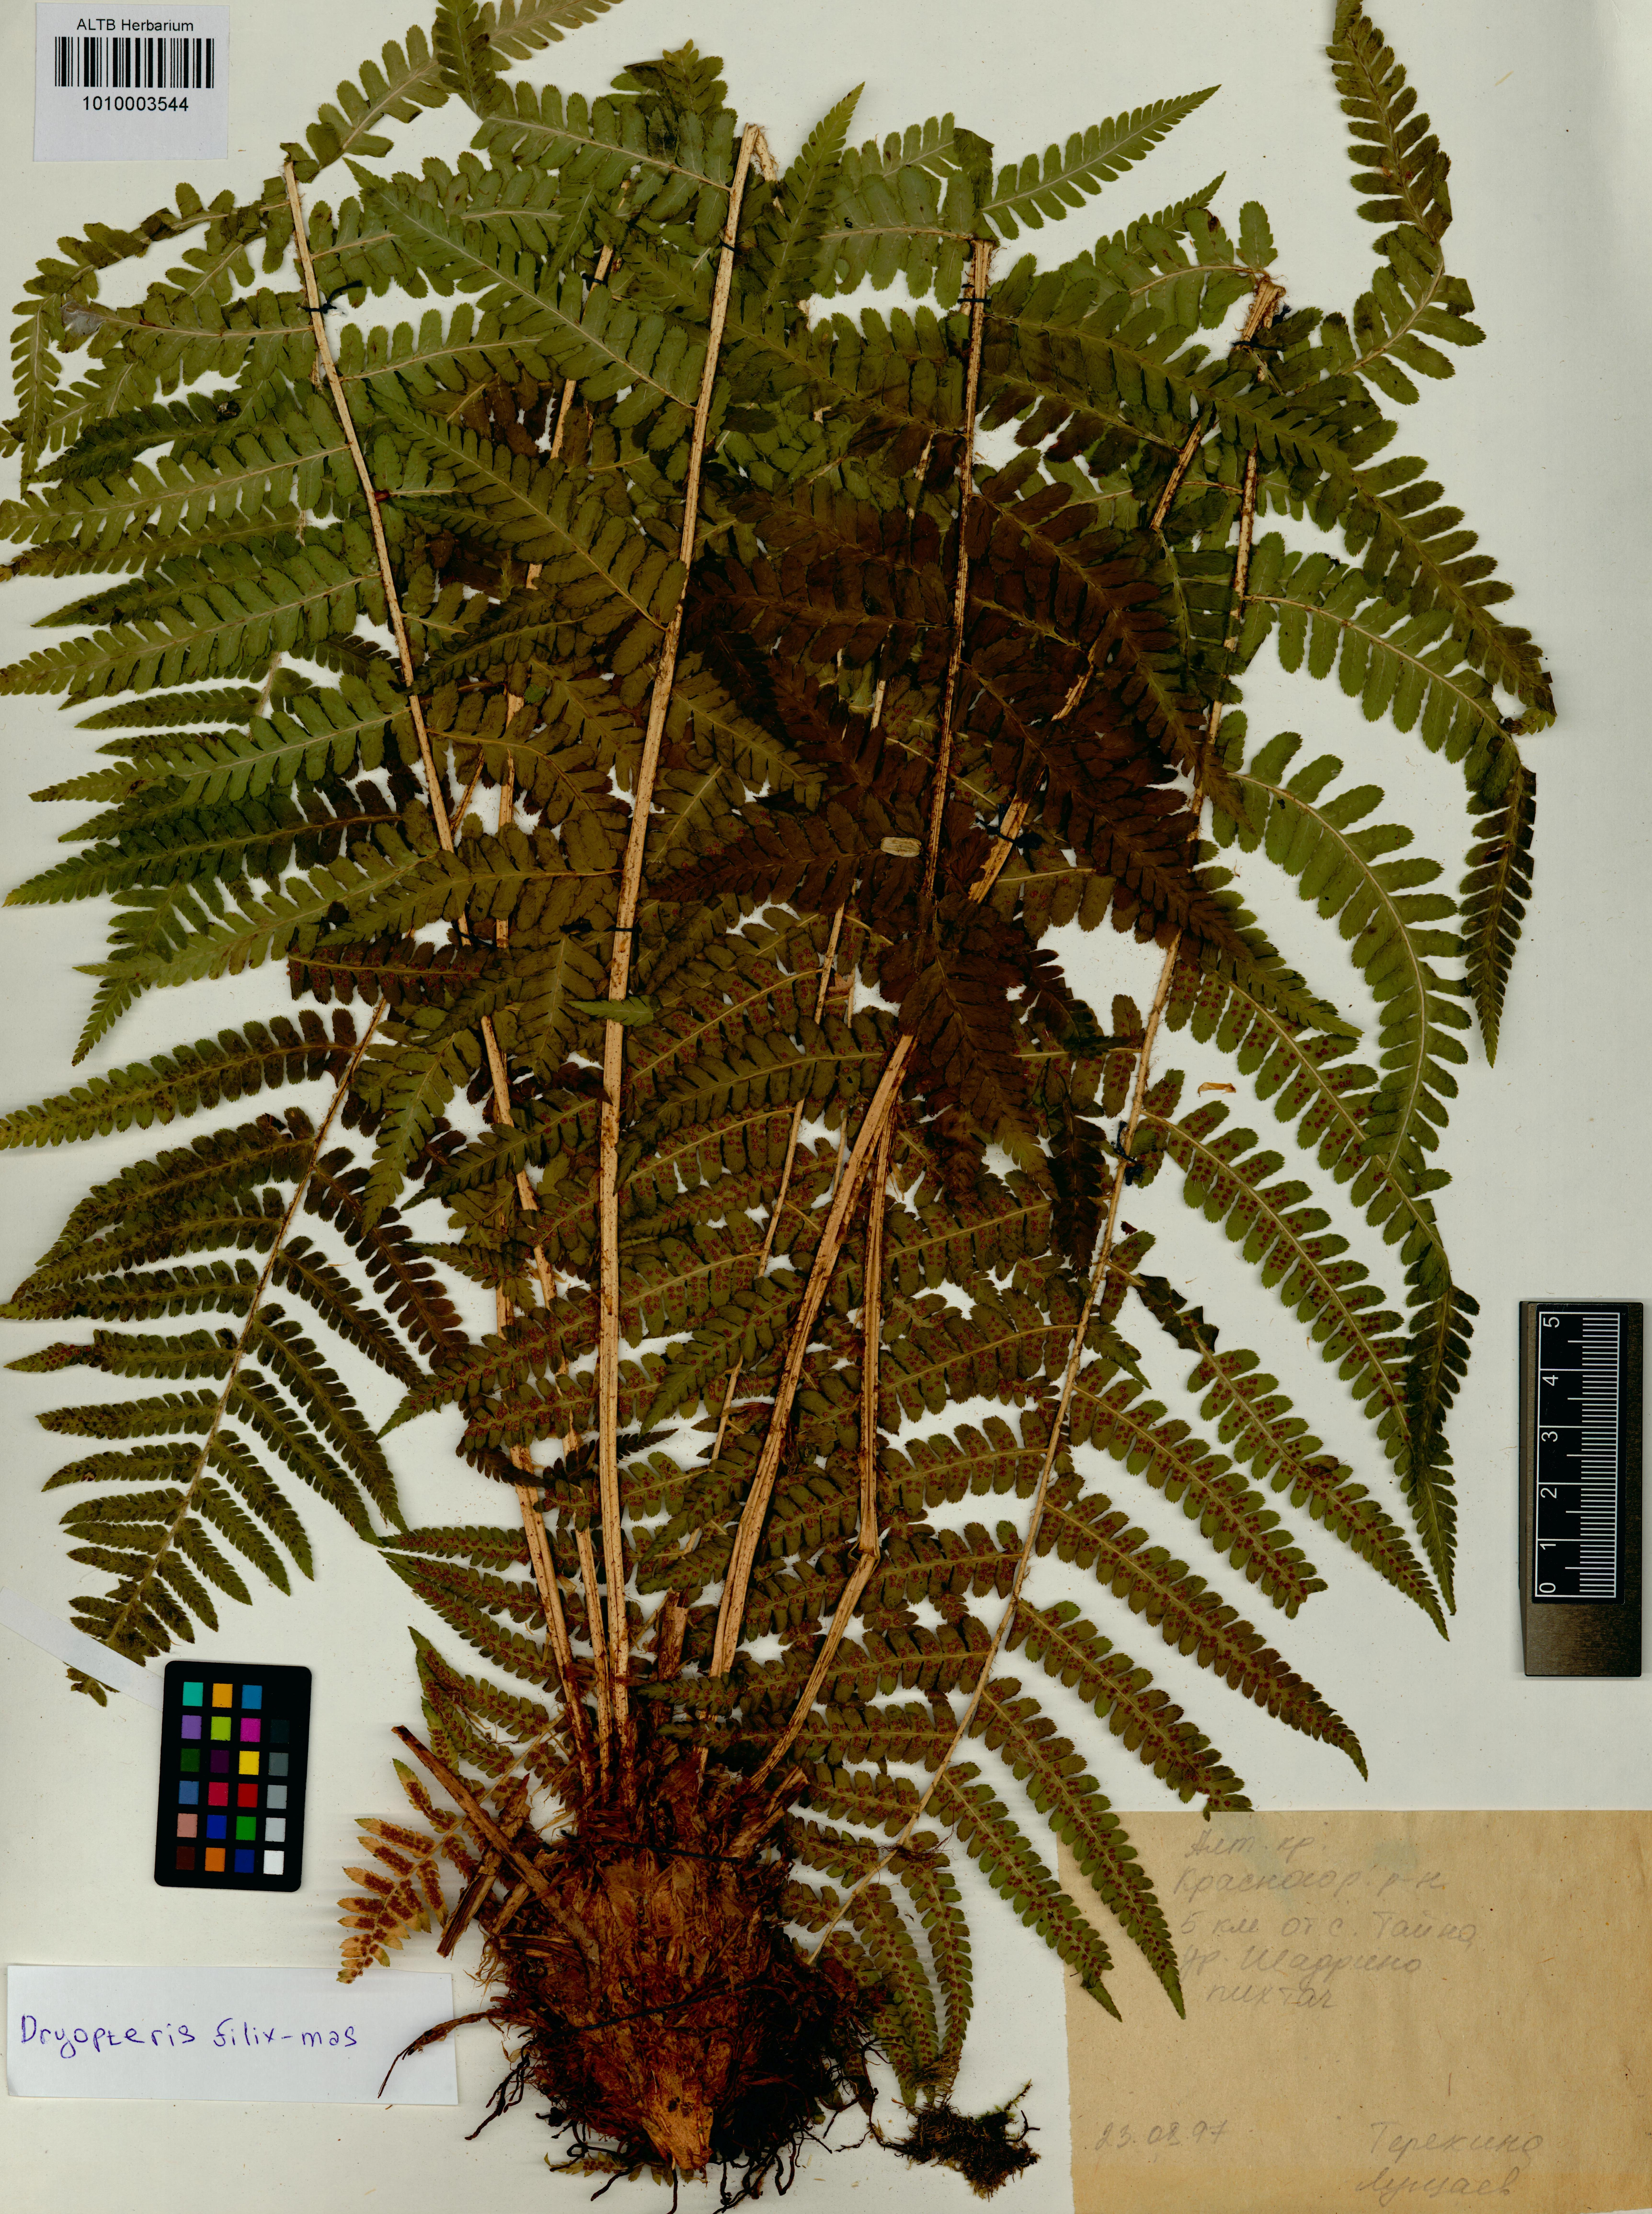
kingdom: Plantae
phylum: Tracheophyta
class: Polypodiopsida
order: Polypodiales
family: Dryopteridaceae
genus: Dryopteris
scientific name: Dryopteris filix-mas
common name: Male fern
